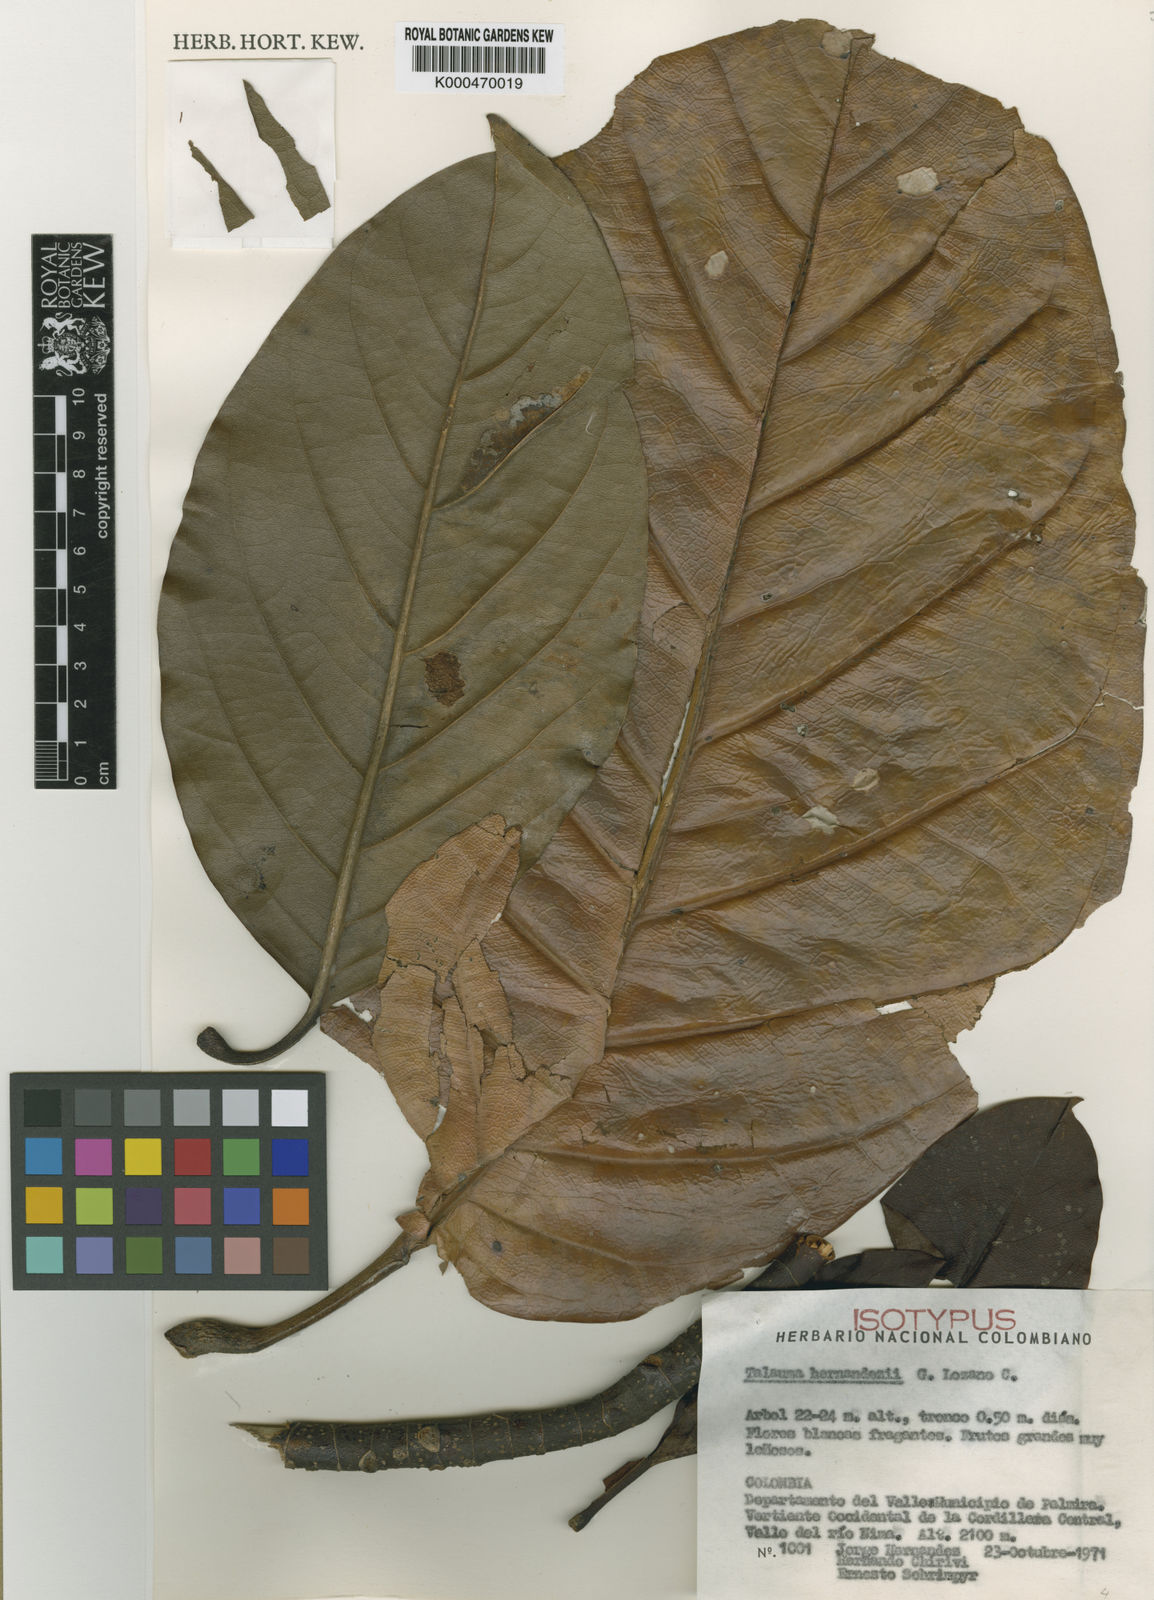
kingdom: Plantae
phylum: Tracheophyta
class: Magnoliopsida
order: Magnoliales
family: Magnoliaceae
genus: Magnolia
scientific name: Magnolia hernandezii
